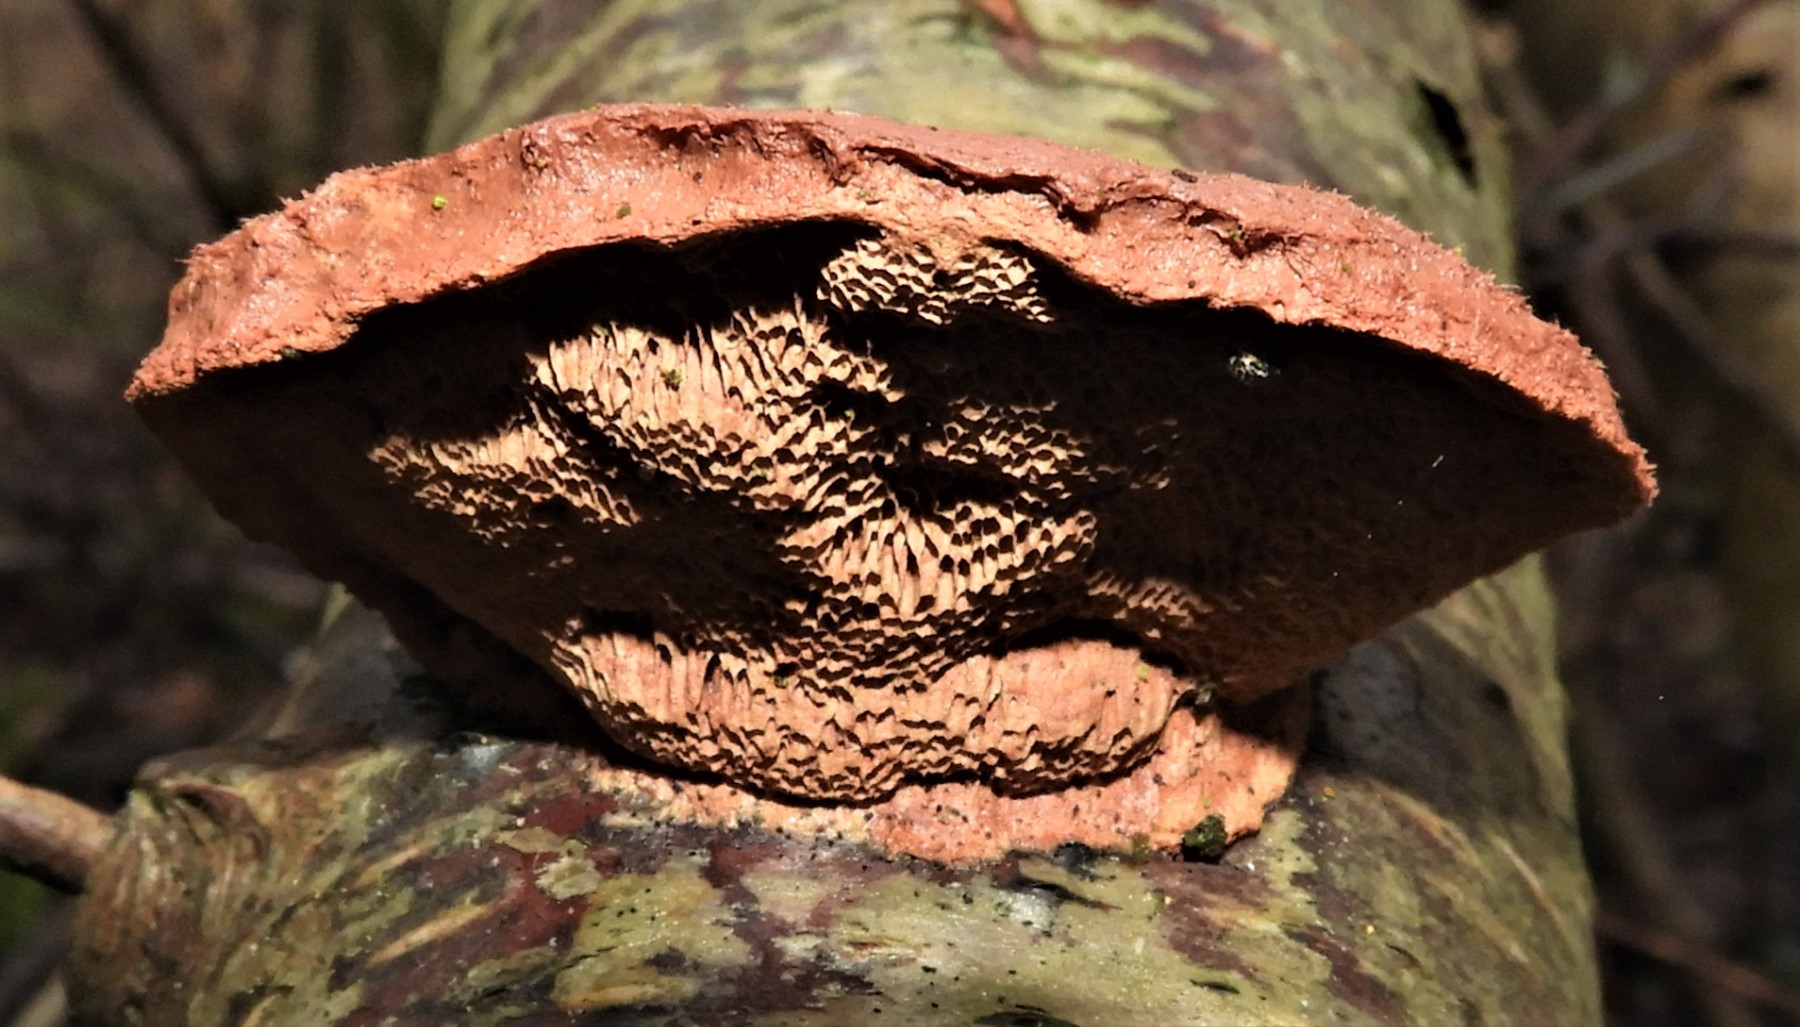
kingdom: Fungi
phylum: Basidiomycota
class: Agaricomycetes
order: Polyporales
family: Phanerochaetaceae
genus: Hapalopilus
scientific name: Hapalopilus rutilans
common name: rødlig okkerporesvamp
